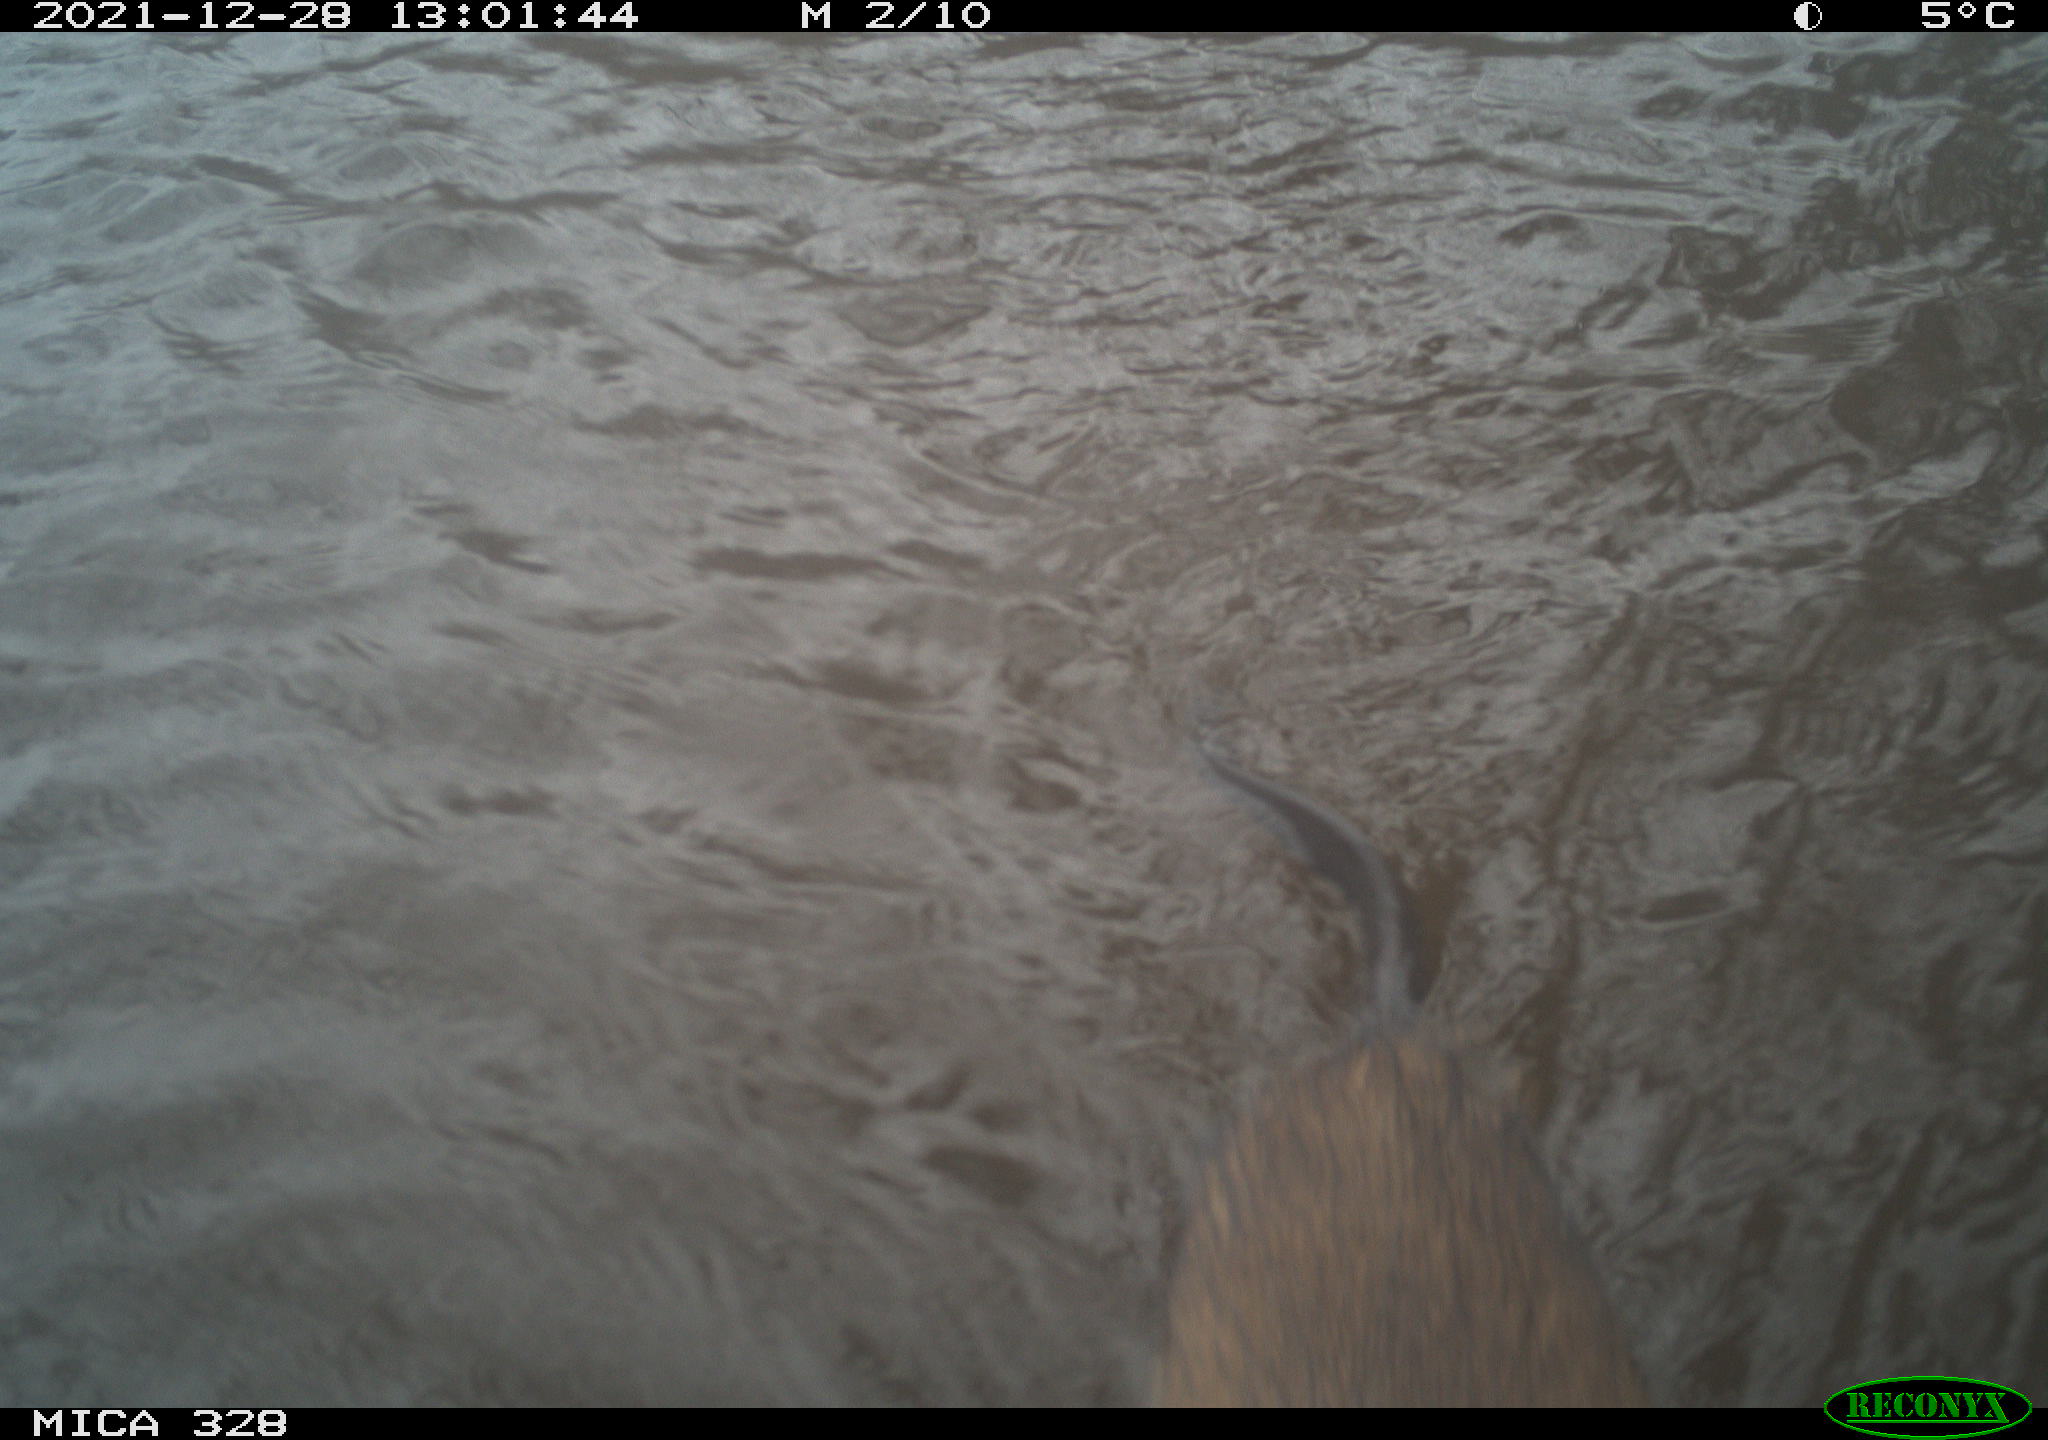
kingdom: Animalia
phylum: Chordata
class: Mammalia
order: Rodentia
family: Cricetidae
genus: Ondatra
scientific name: Ondatra zibethicus
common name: Muskrat
